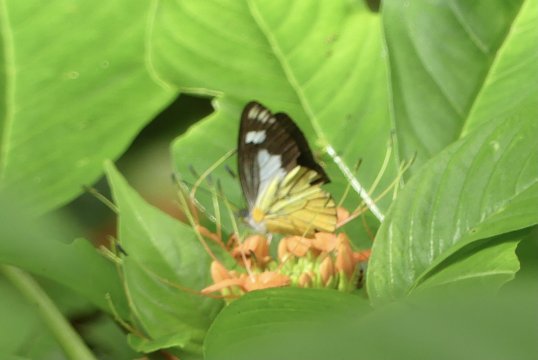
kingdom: Animalia
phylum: Arthropoda
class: Insecta
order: Lepidoptera
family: Pieridae
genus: Leptophobia
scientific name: Leptophobia caesia
